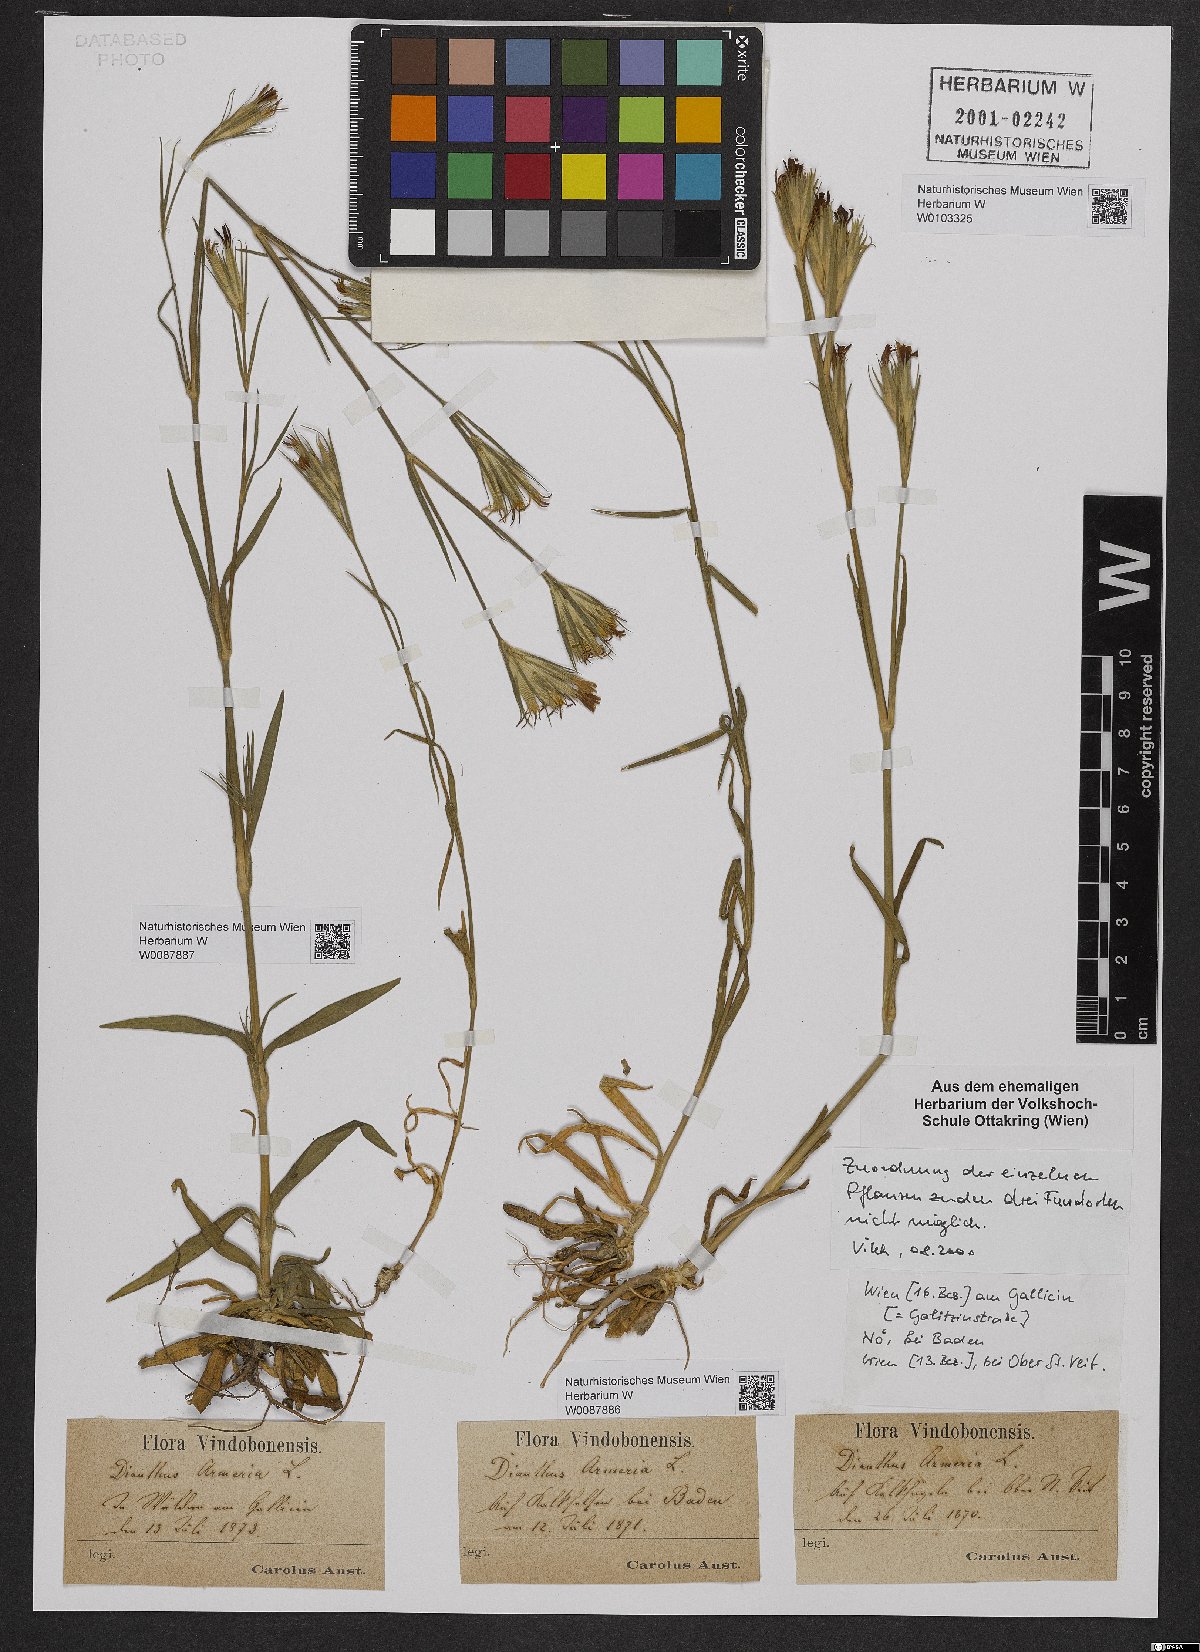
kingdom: Plantae
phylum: Tracheophyta
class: Magnoliopsida
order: Caryophyllales
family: Caryophyllaceae
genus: Dianthus
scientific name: Dianthus armeria
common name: Deptford pink
